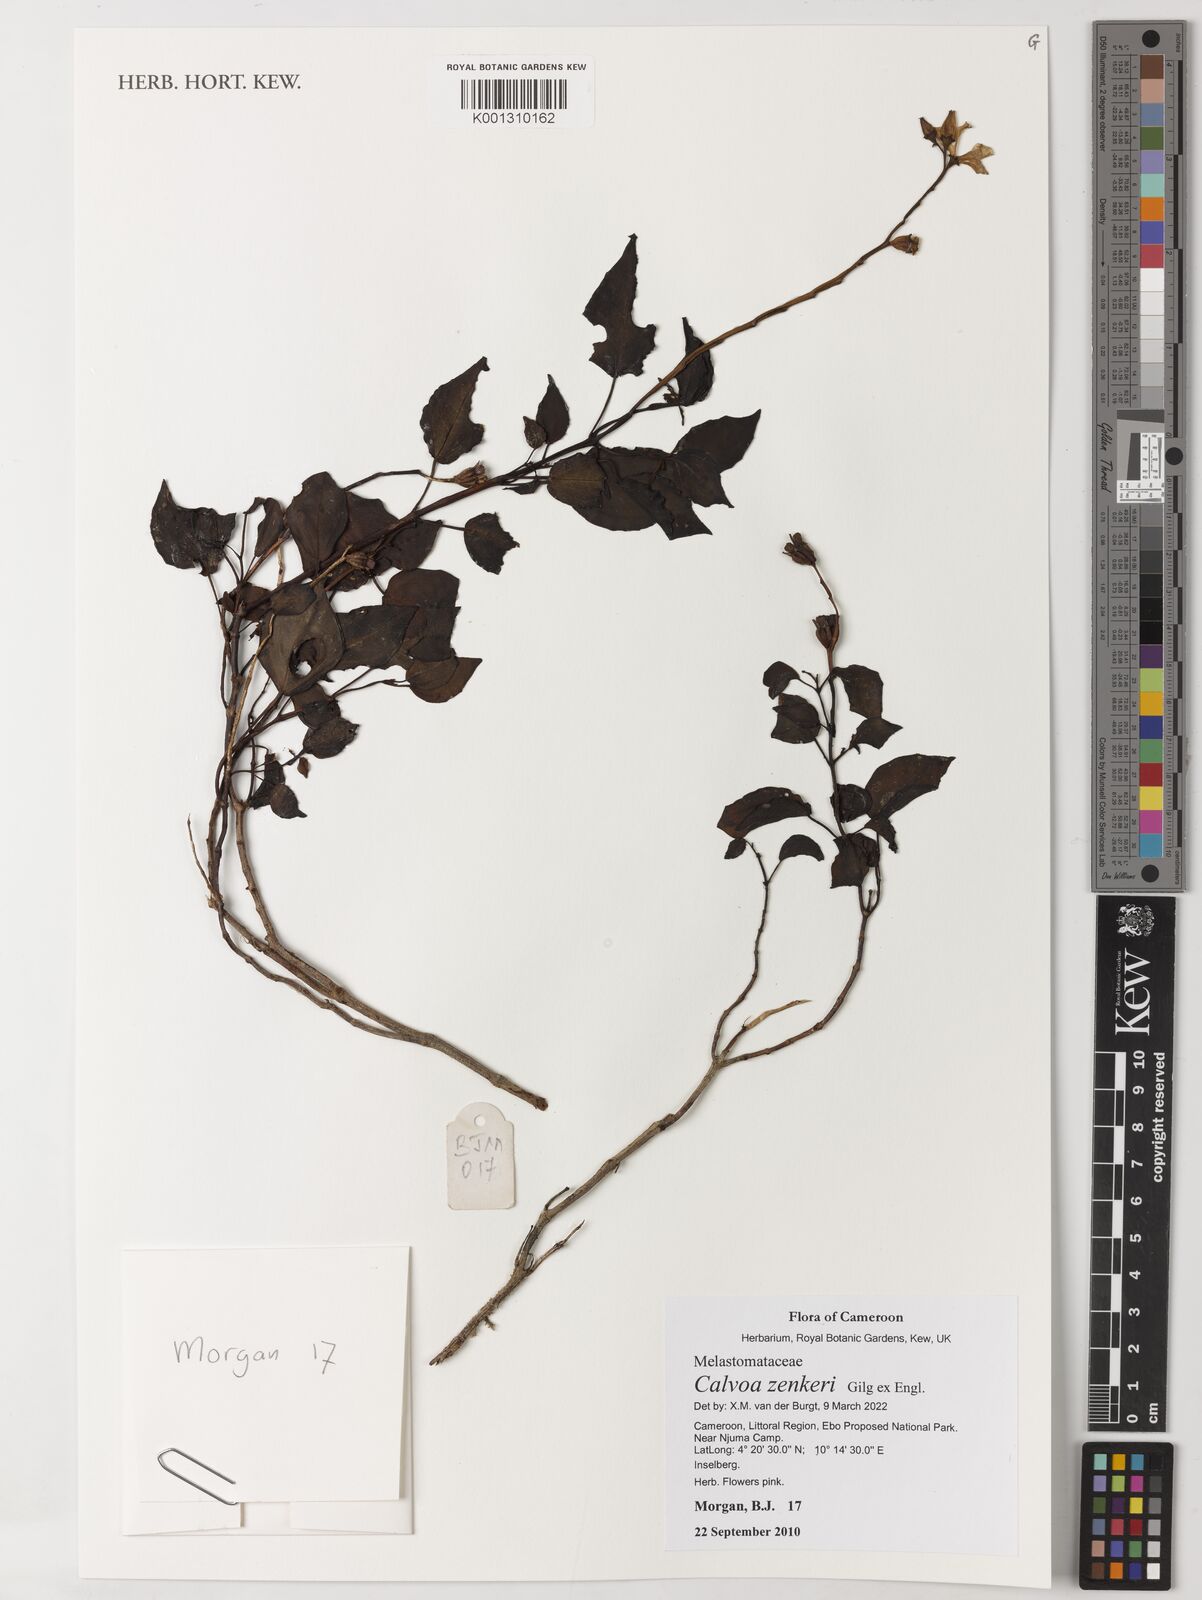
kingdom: Plantae
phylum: Tracheophyta
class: Magnoliopsida
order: Myrtales
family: Melastomataceae
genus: Calvoa
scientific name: Calvoa zenkeri
